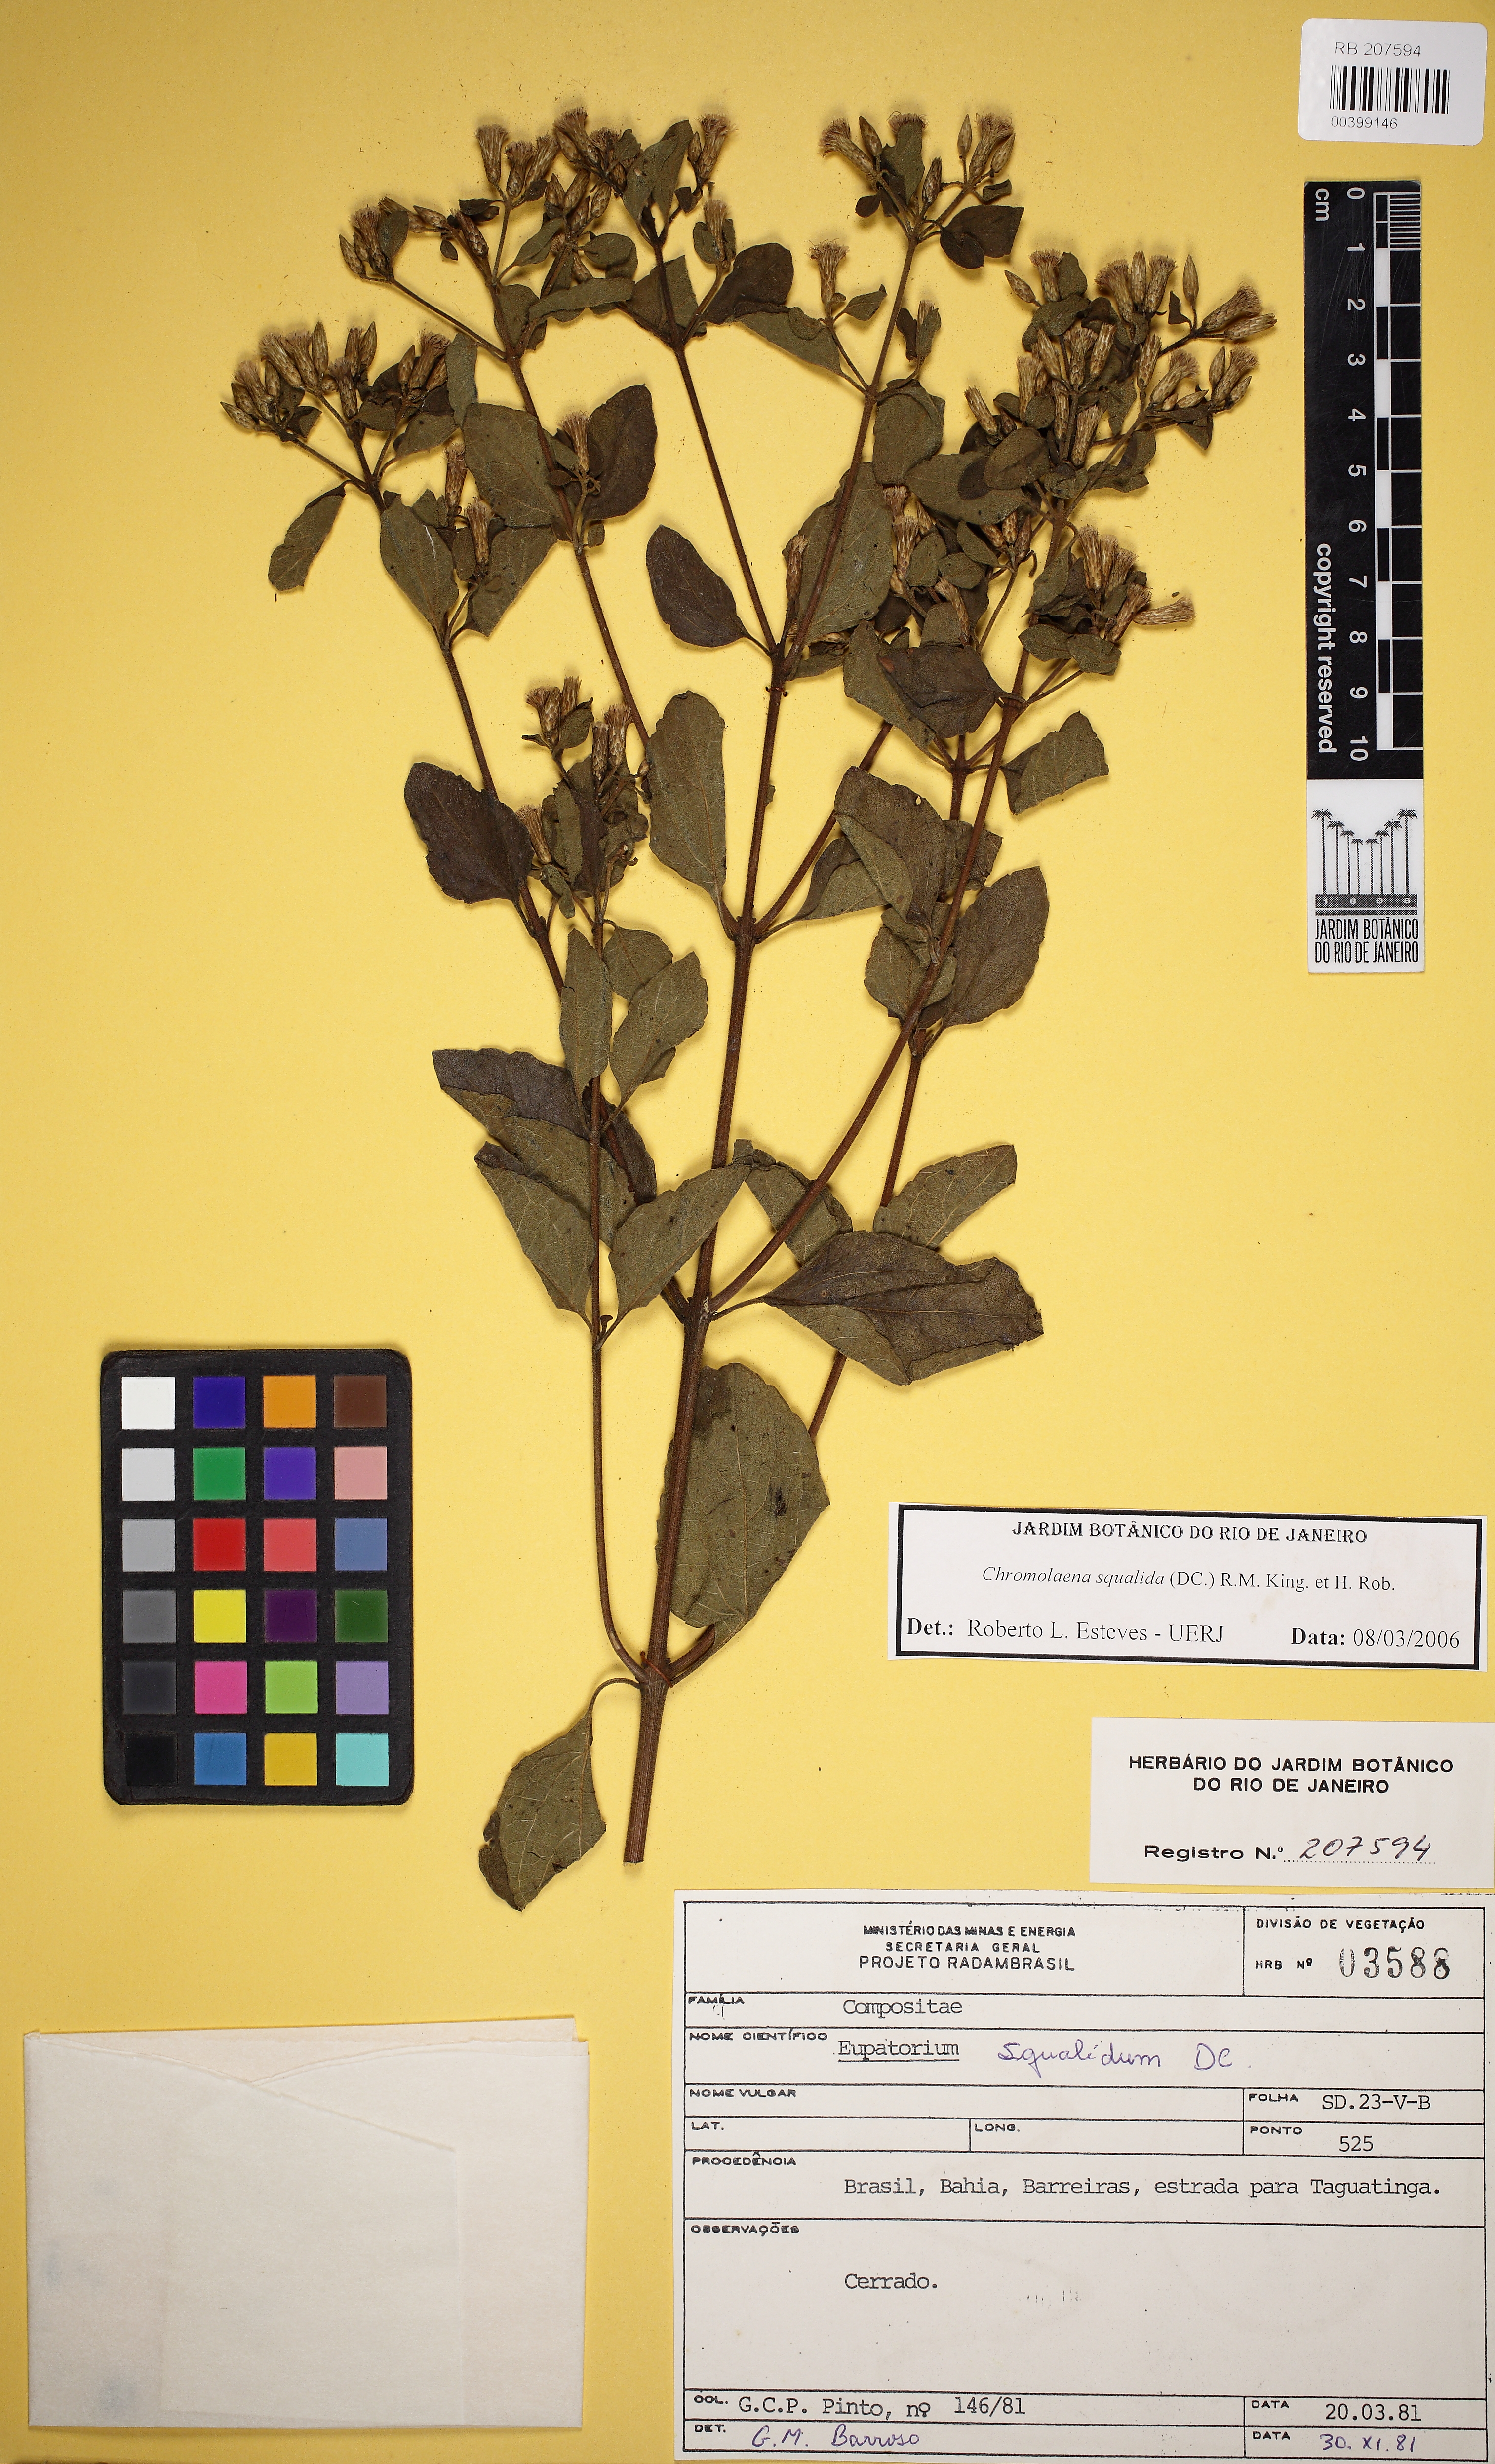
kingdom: Plantae
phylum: Tracheophyta
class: Magnoliopsida
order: Asterales
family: Asteraceae
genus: Chromolaena
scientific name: Chromolaena squalida
